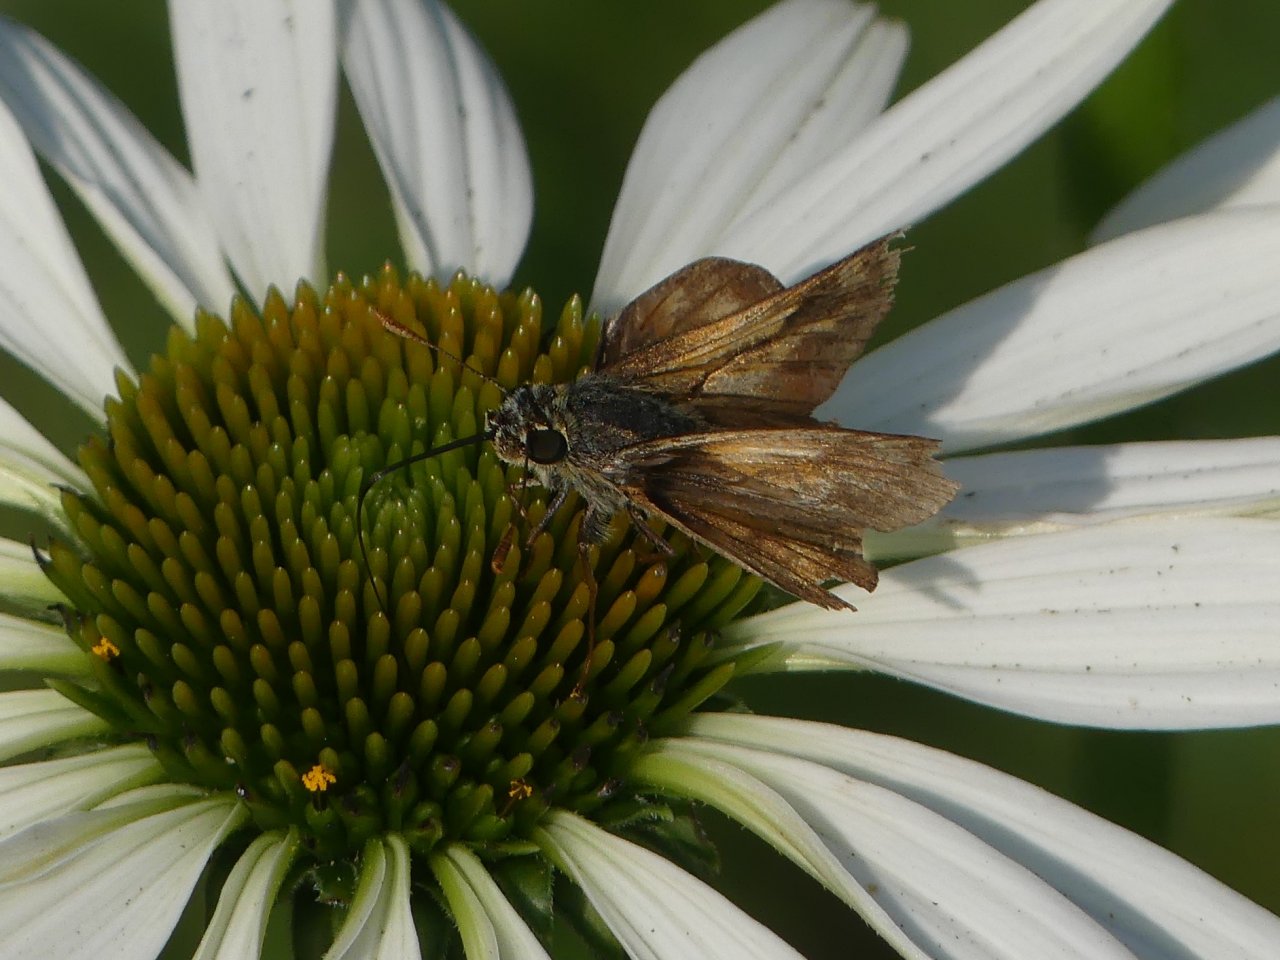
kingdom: Animalia
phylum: Arthropoda
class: Insecta
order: Lepidoptera
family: Hesperiidae
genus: Vernia
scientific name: Vernia verna
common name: Little Glassywing
